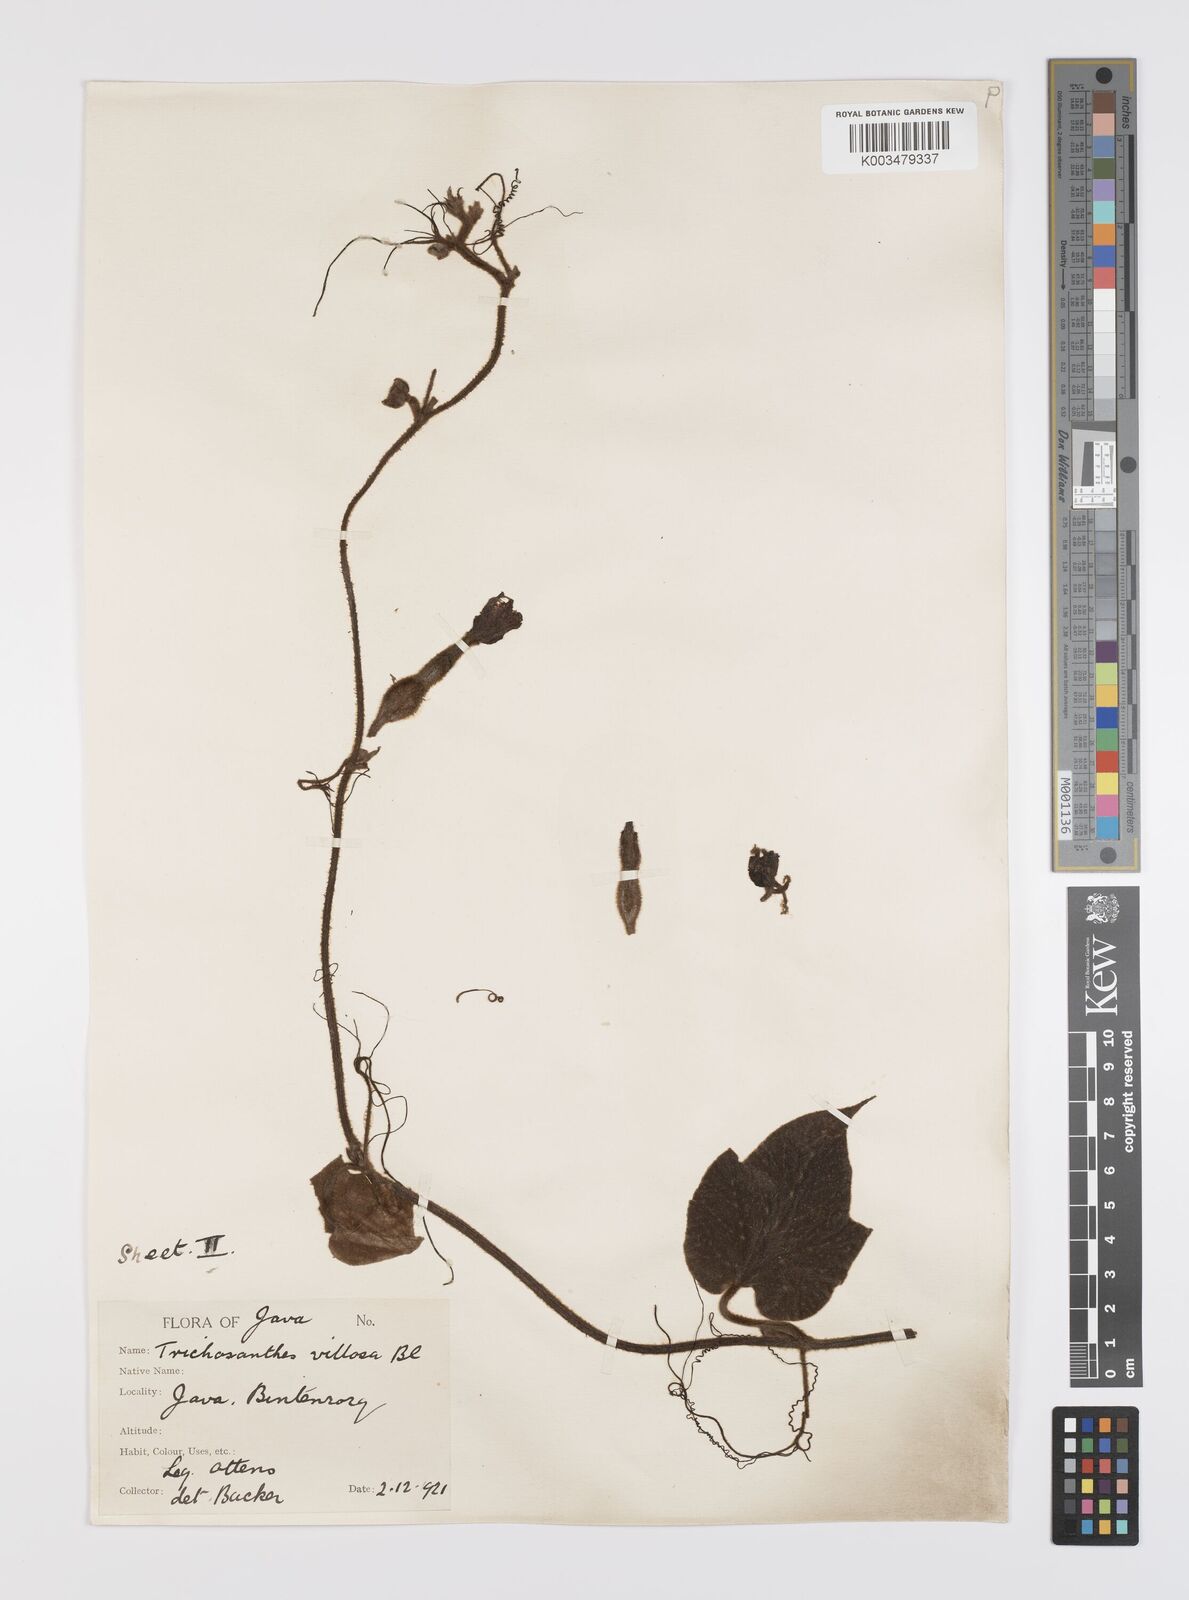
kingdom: Plantae
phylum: Tracheophyta
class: Magnoliopsida
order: Cucurbitales
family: Cucurbitaceae
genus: Trichosanthes
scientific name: Trichosanthes villosa
